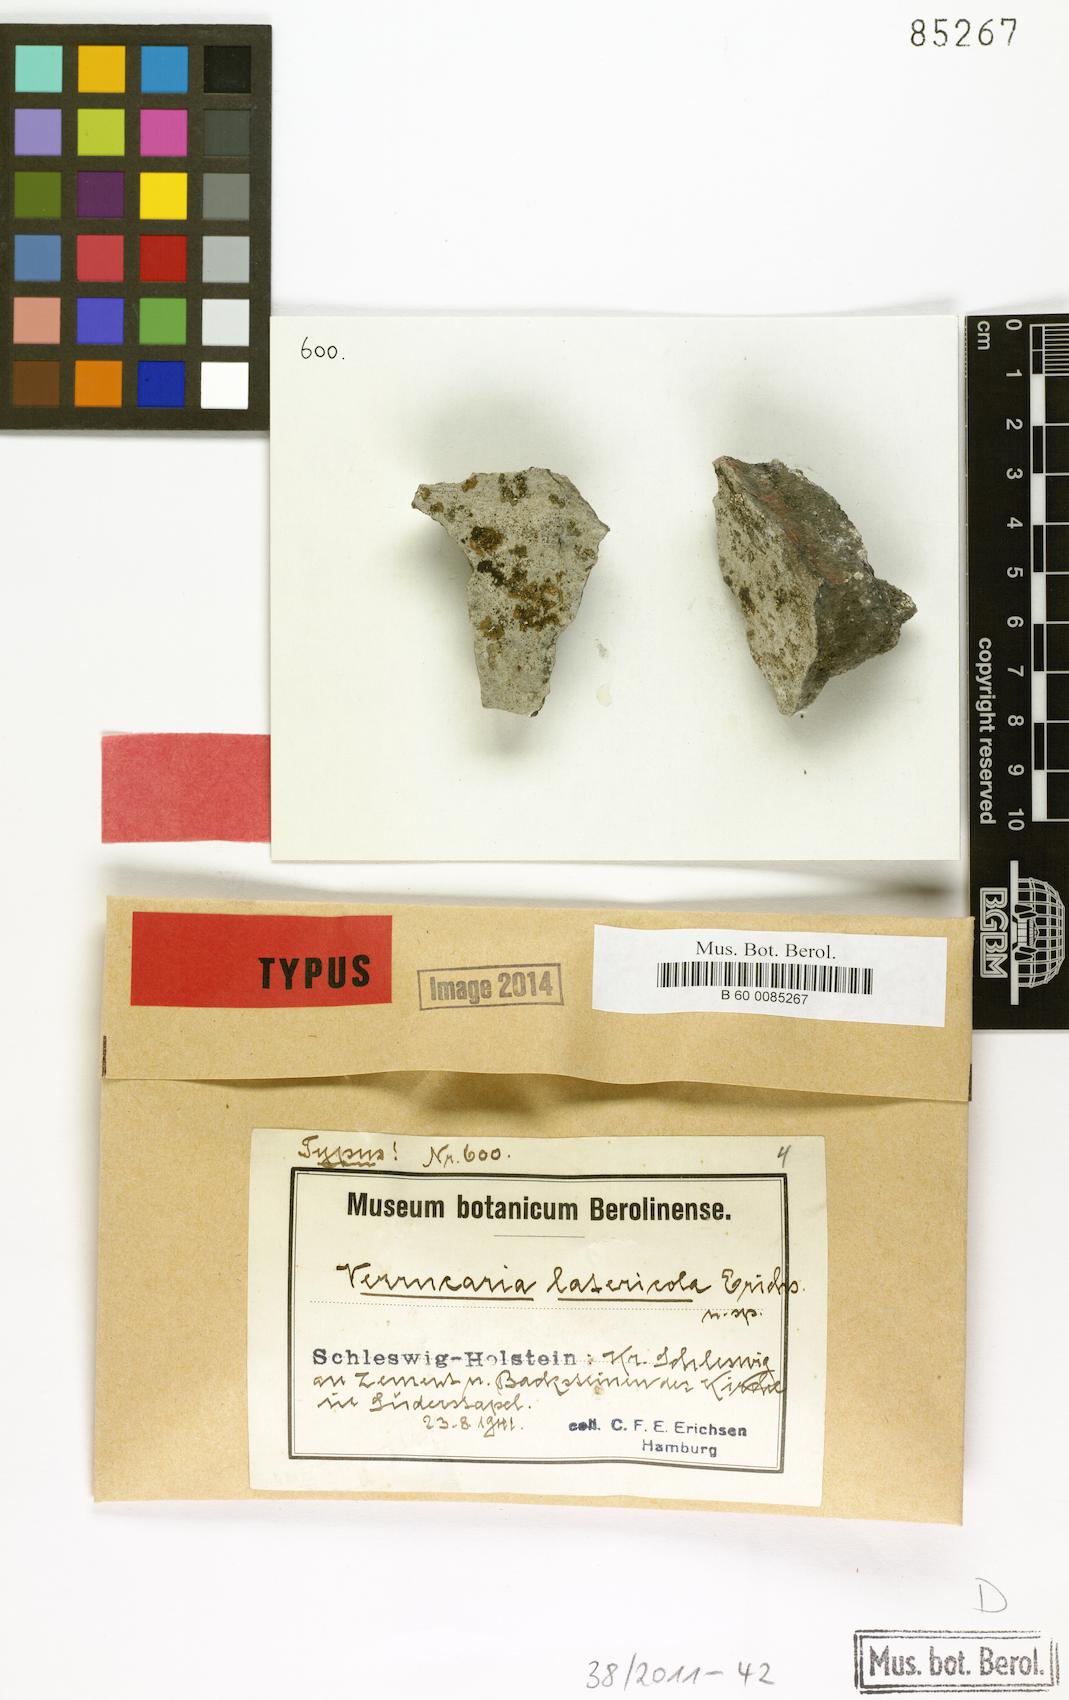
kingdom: Fungi
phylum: Ascomycota
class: Eurotiomycetes
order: Verrucariales
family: Verrucariaceae
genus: Verrucaria
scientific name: Verrucaria latericola
